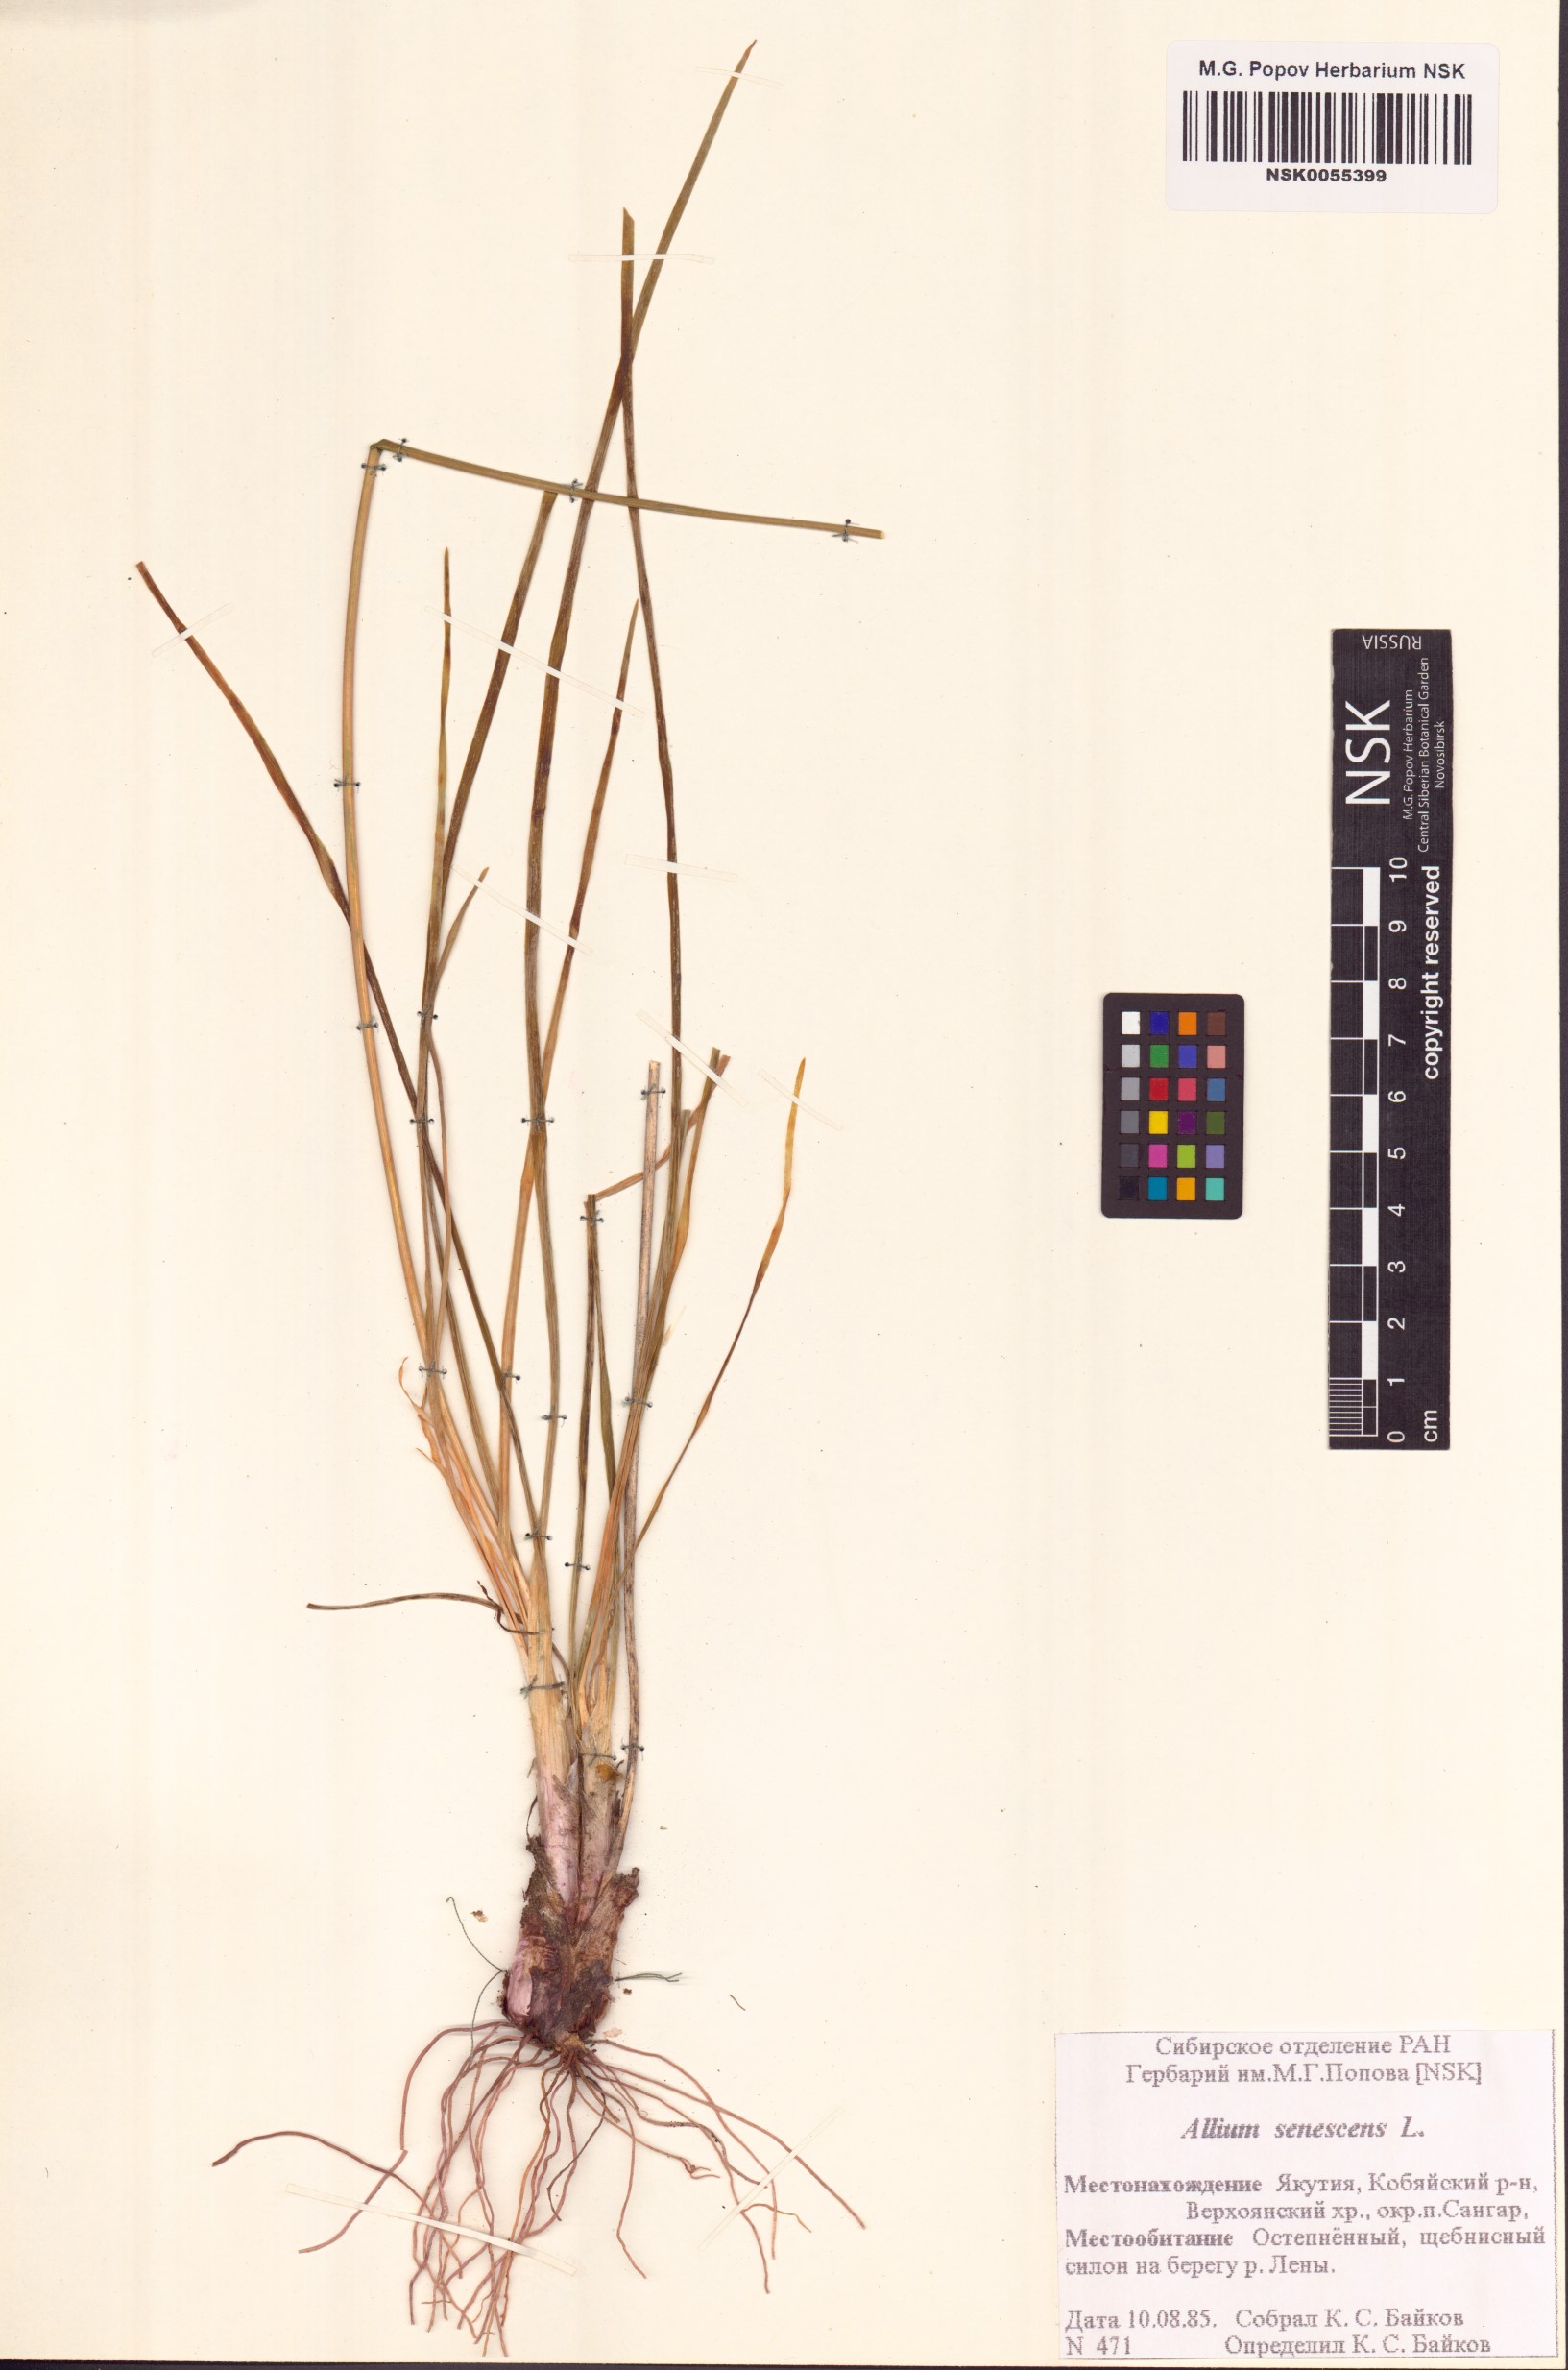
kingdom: Plantae
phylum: Tracheophyta
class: Liliopsida
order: Asparagales
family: Amaryllidaceae
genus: Allium
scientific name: Allium senescens
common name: German garlic
